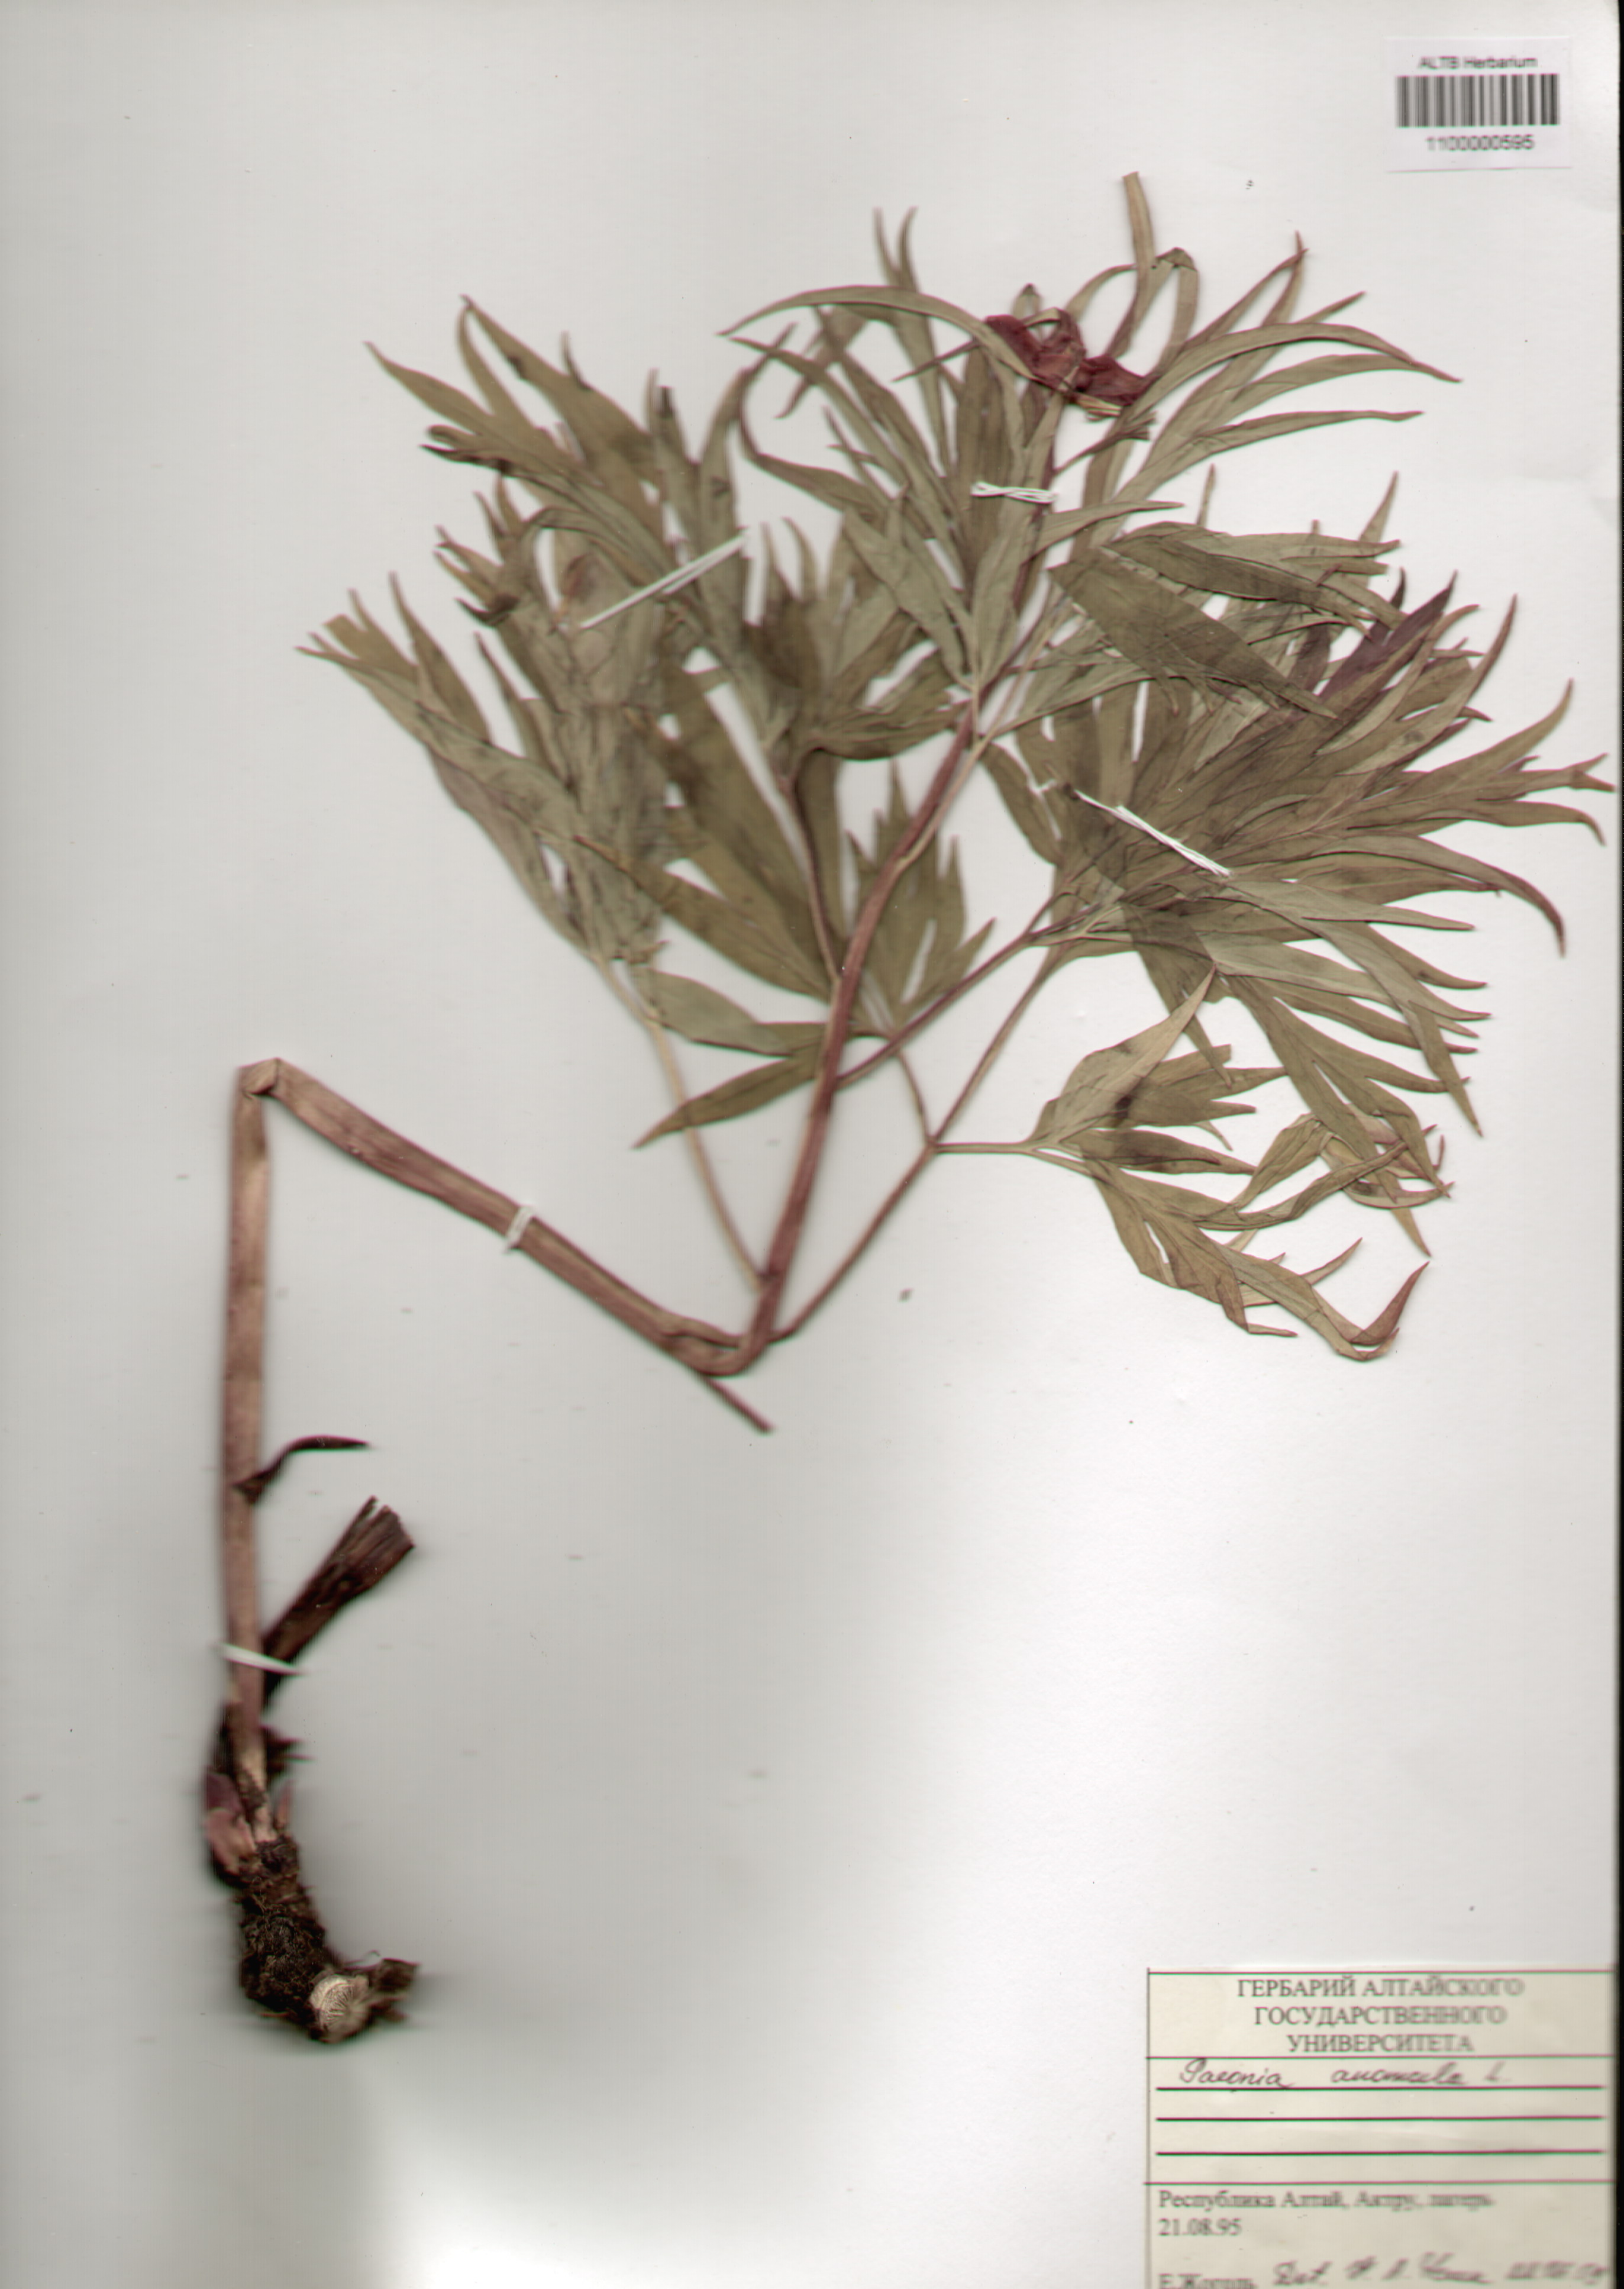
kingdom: Plantae
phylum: Tracheophyta
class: Magnoliopsida
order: Saxifragales
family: Paeoniaceae
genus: Paeonia
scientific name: Paeonia anomala
